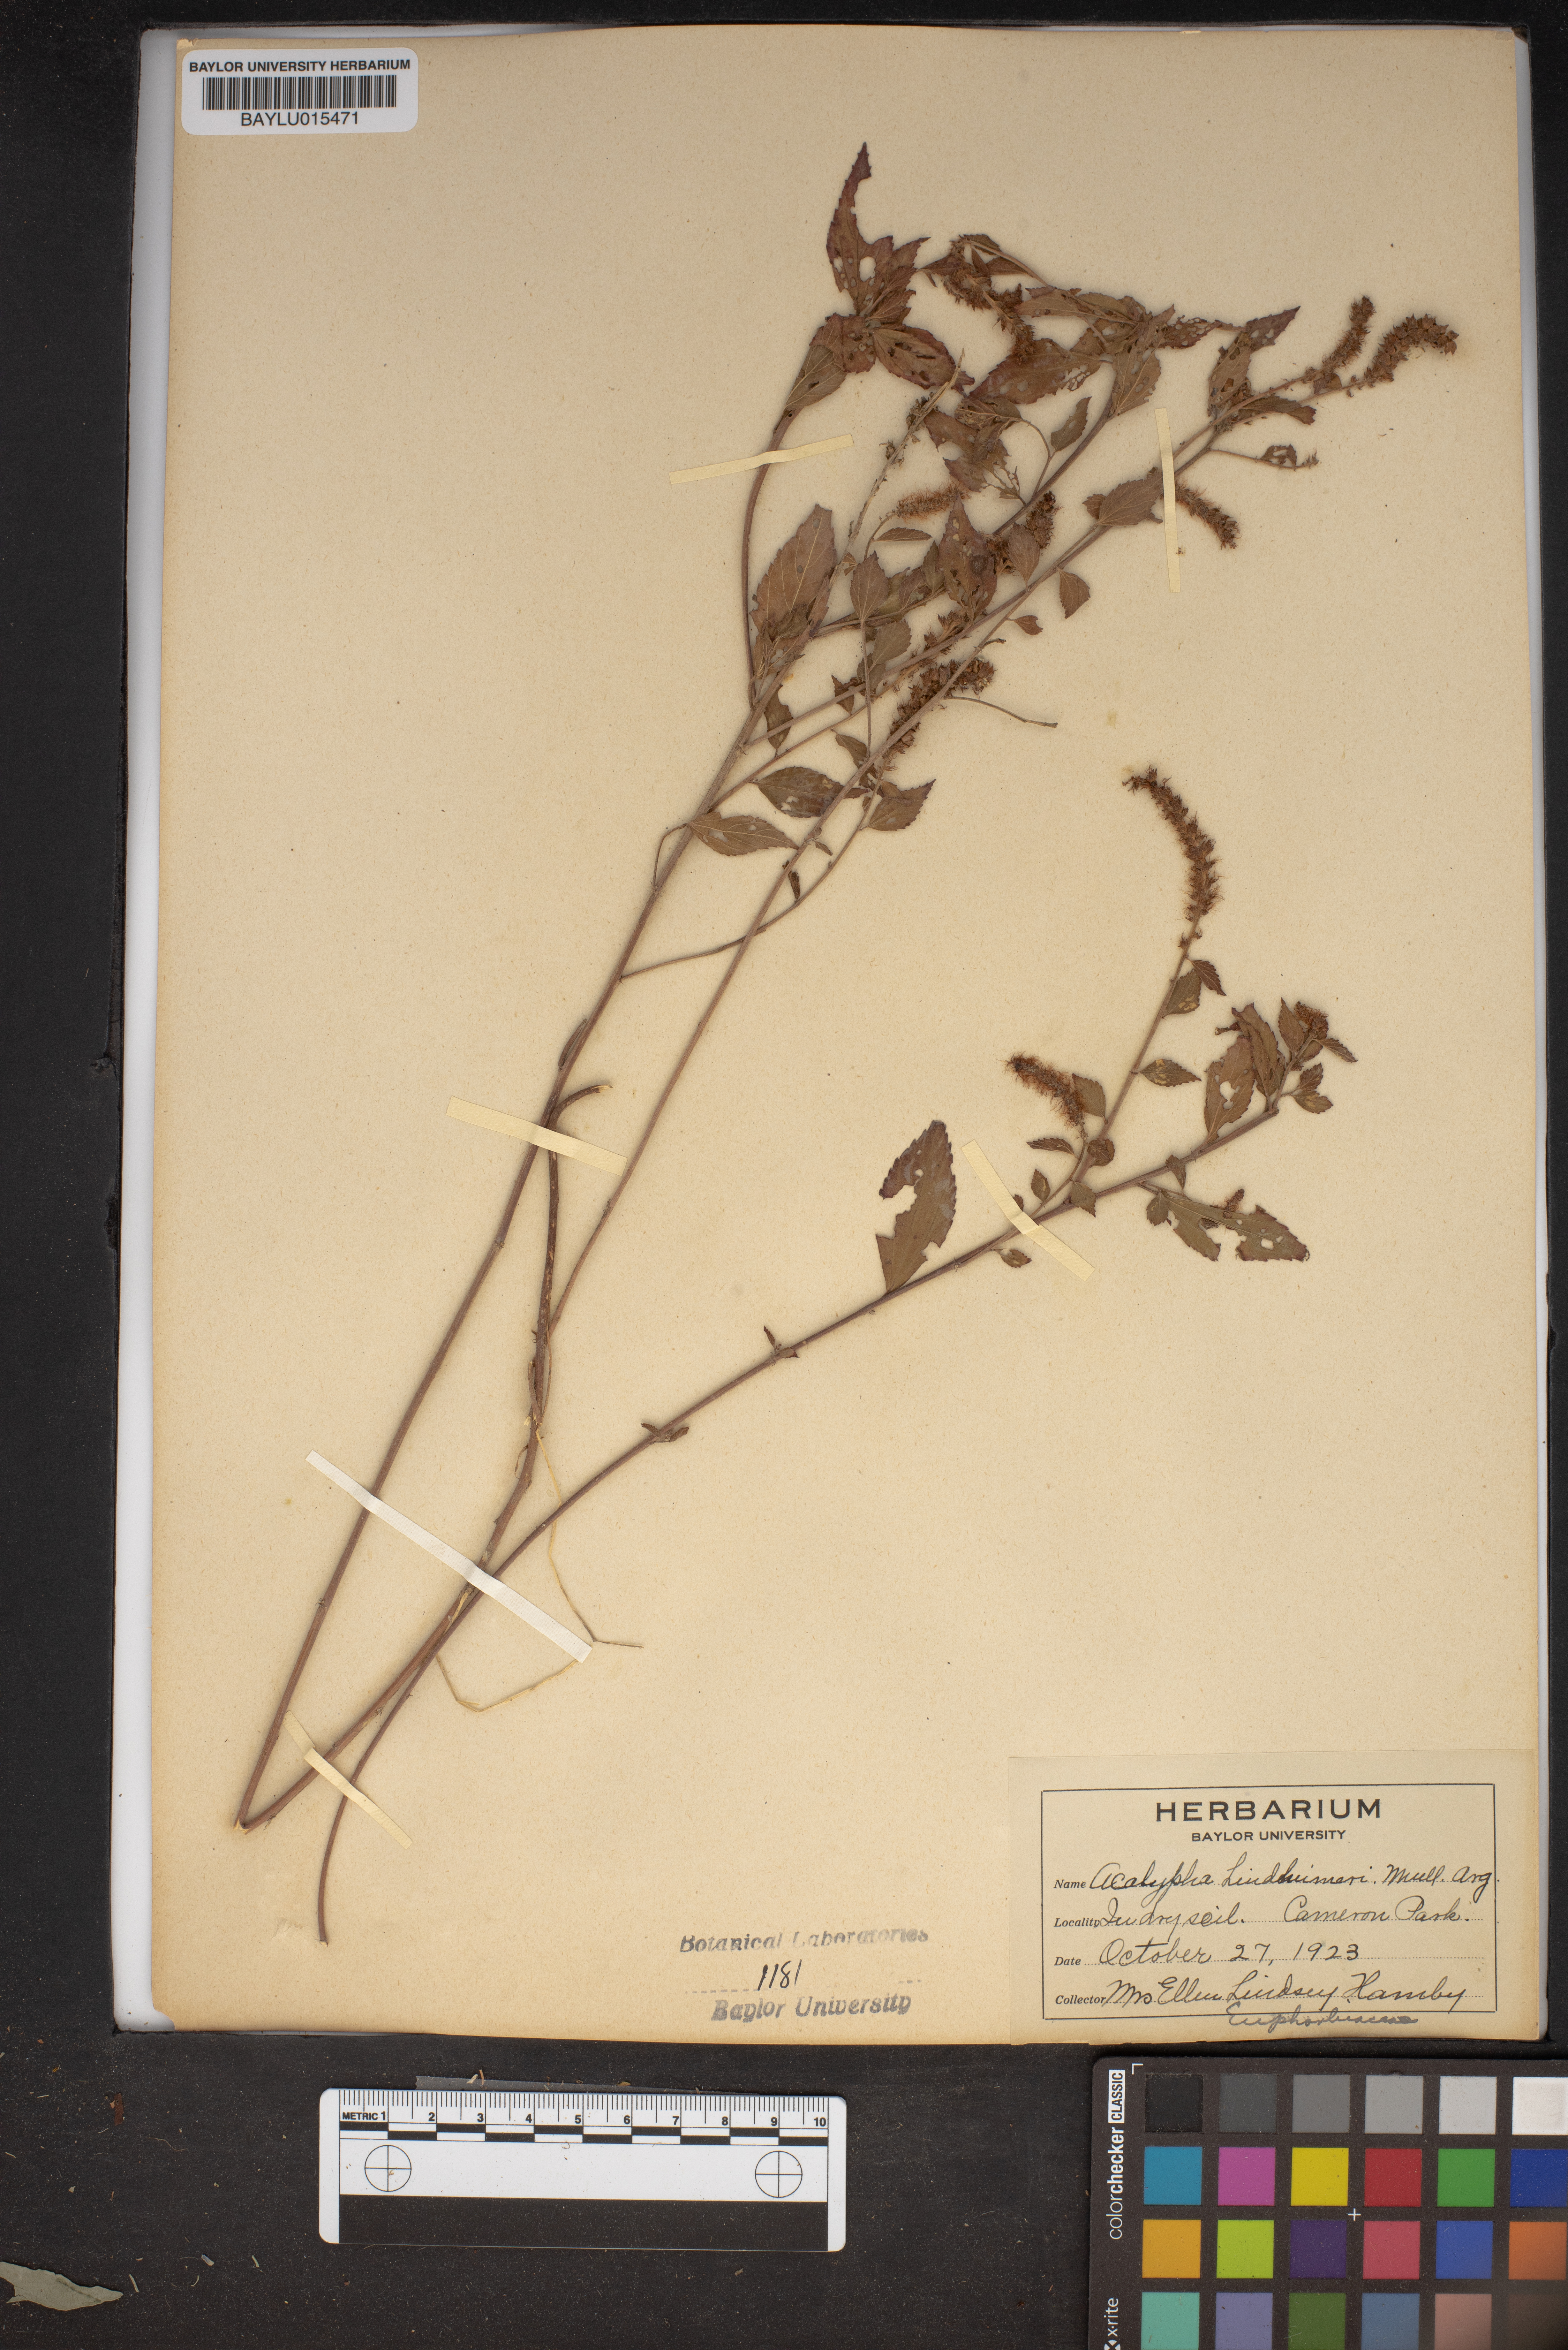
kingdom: Plantae
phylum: Tracheophyta
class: Magnoliopsida
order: Malpighiales
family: Euphorbiaceae
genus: Acalypha
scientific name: Acalypha phleoides
